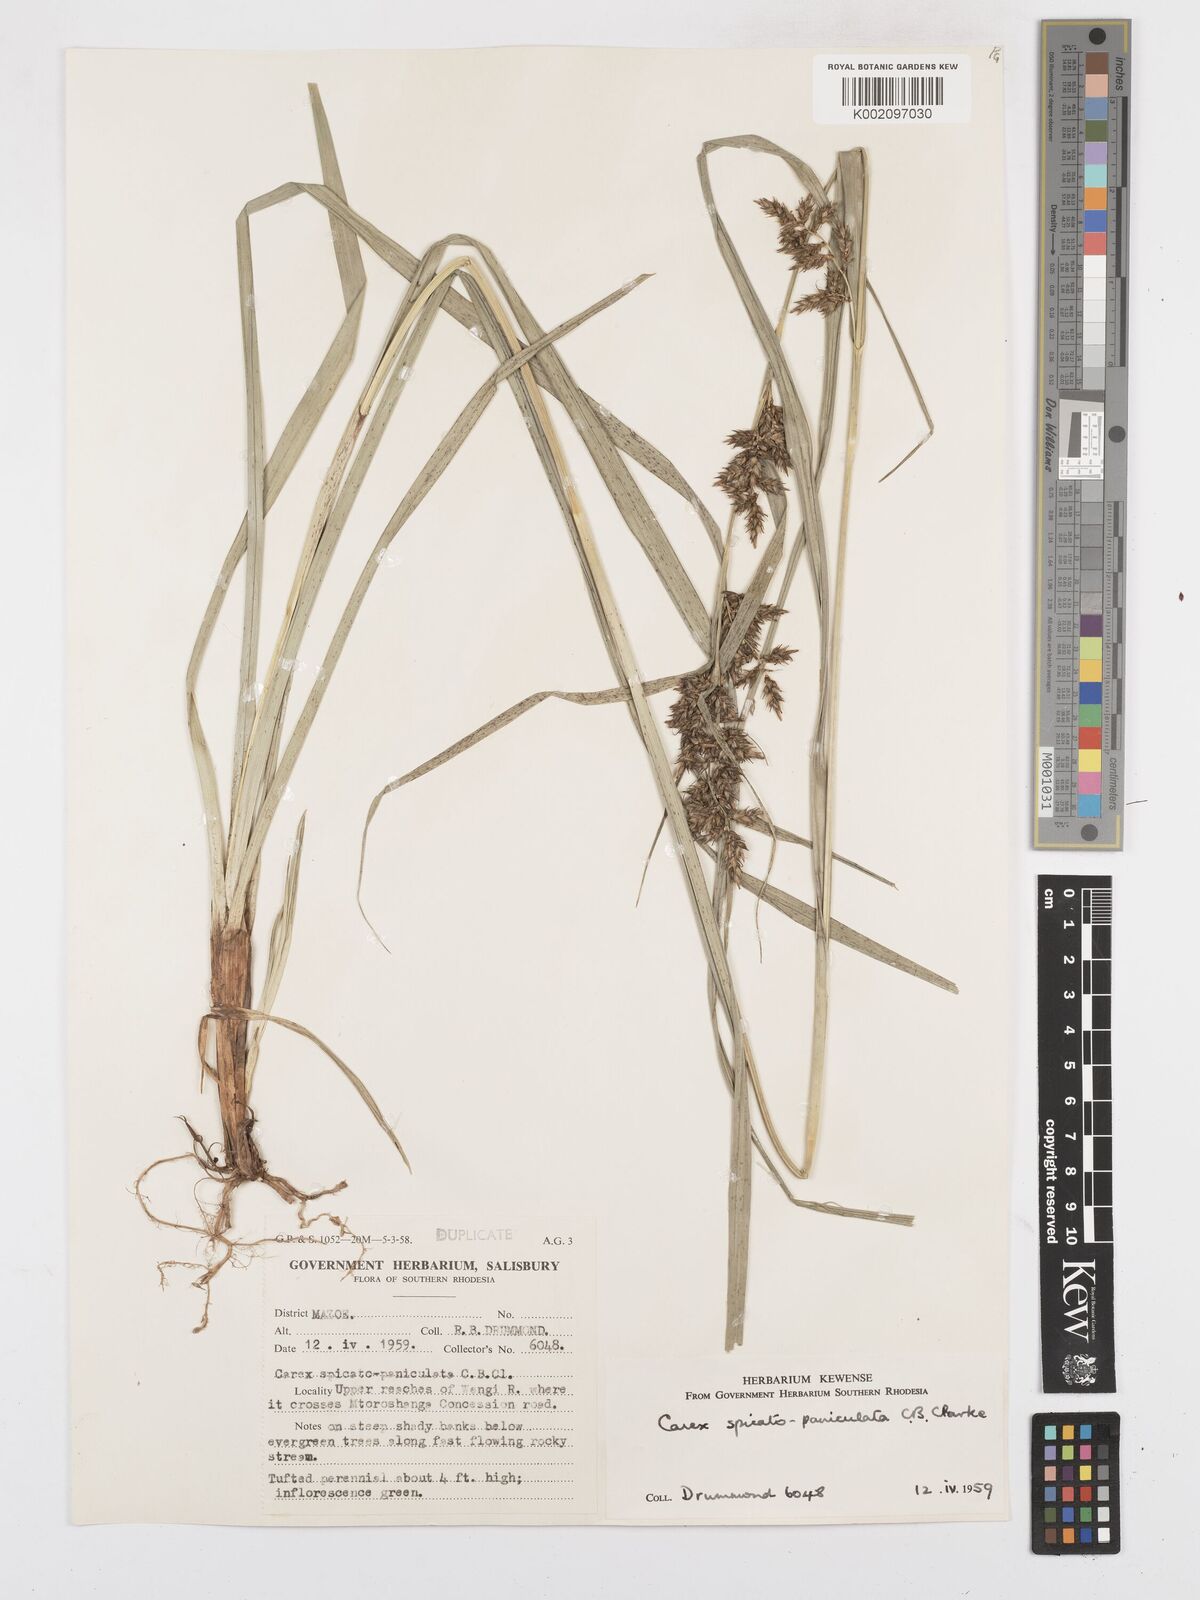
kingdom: Plantae
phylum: Tracheophyta
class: Liliopsida
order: Poales
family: Cyperaceae
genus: Carex
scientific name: Carex spicatopaniculata
